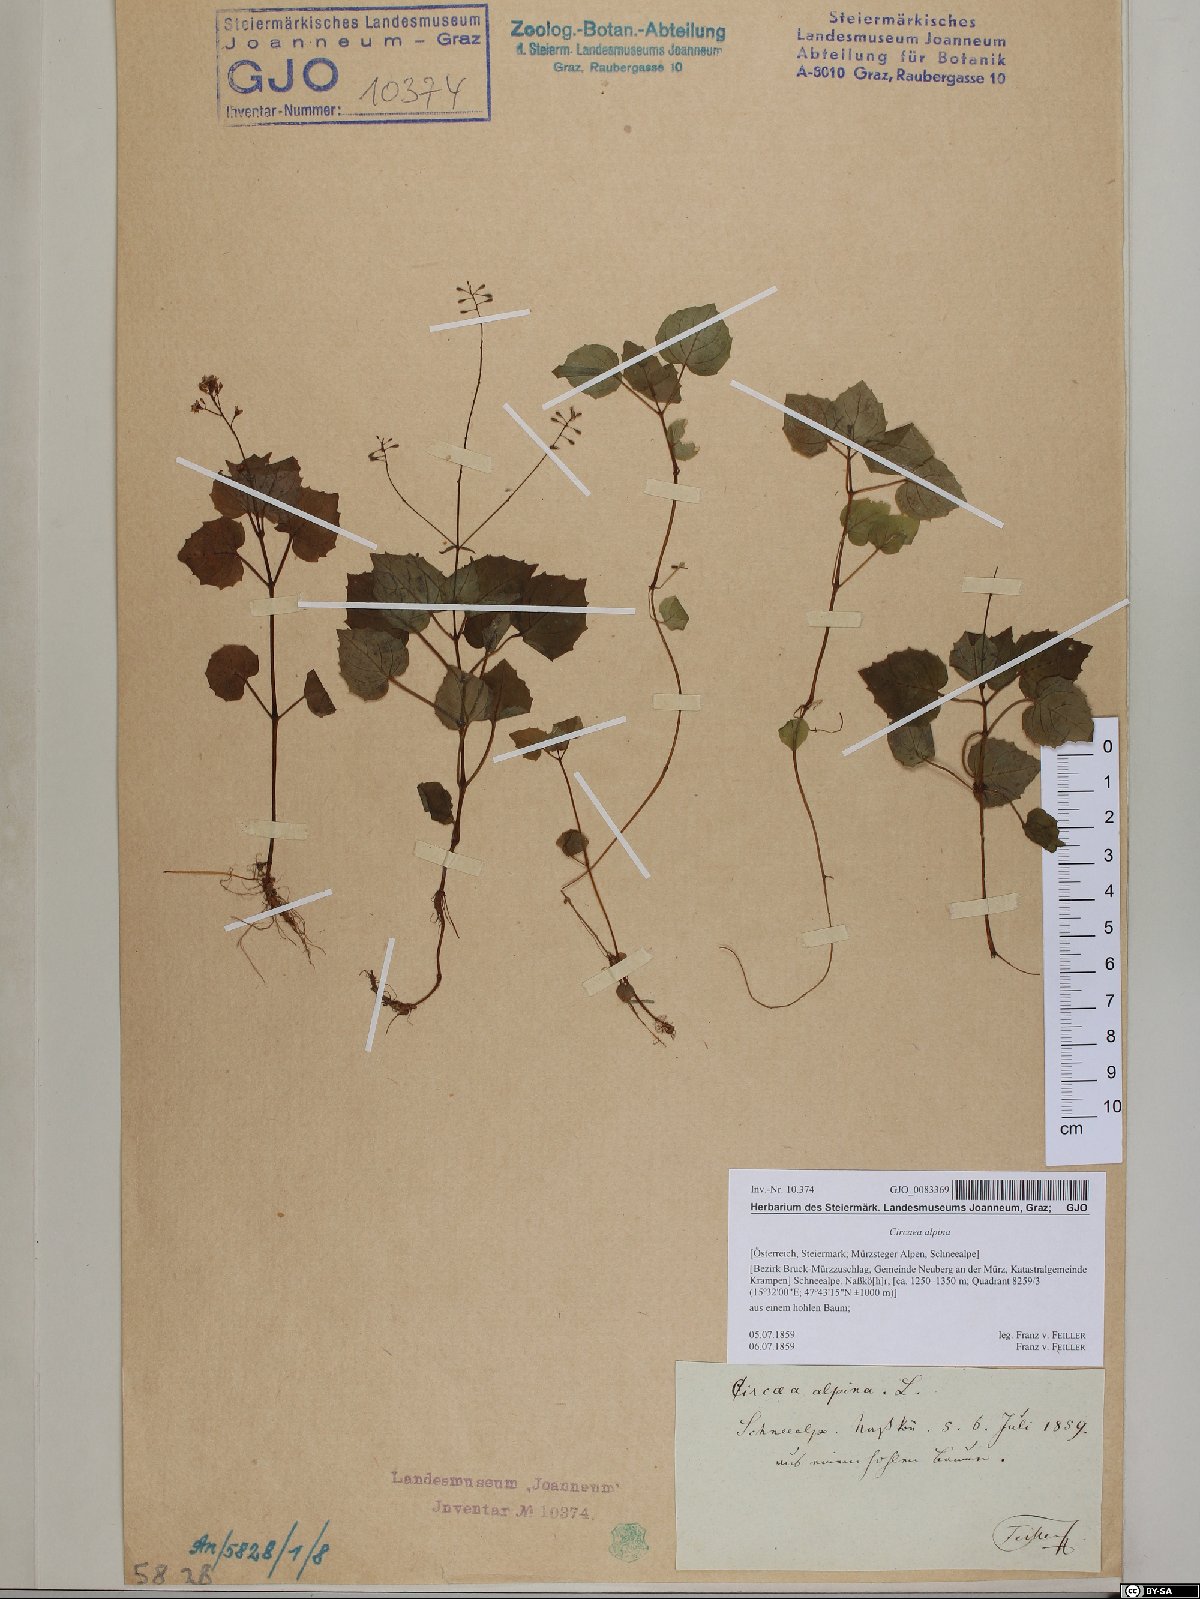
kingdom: Plantae
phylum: Tracheophyta
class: Magnoliopsida
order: Myrtales
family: Onagraceae
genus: Circaea
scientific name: Circaea alpina
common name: Alpine enchanter's-nightshade
